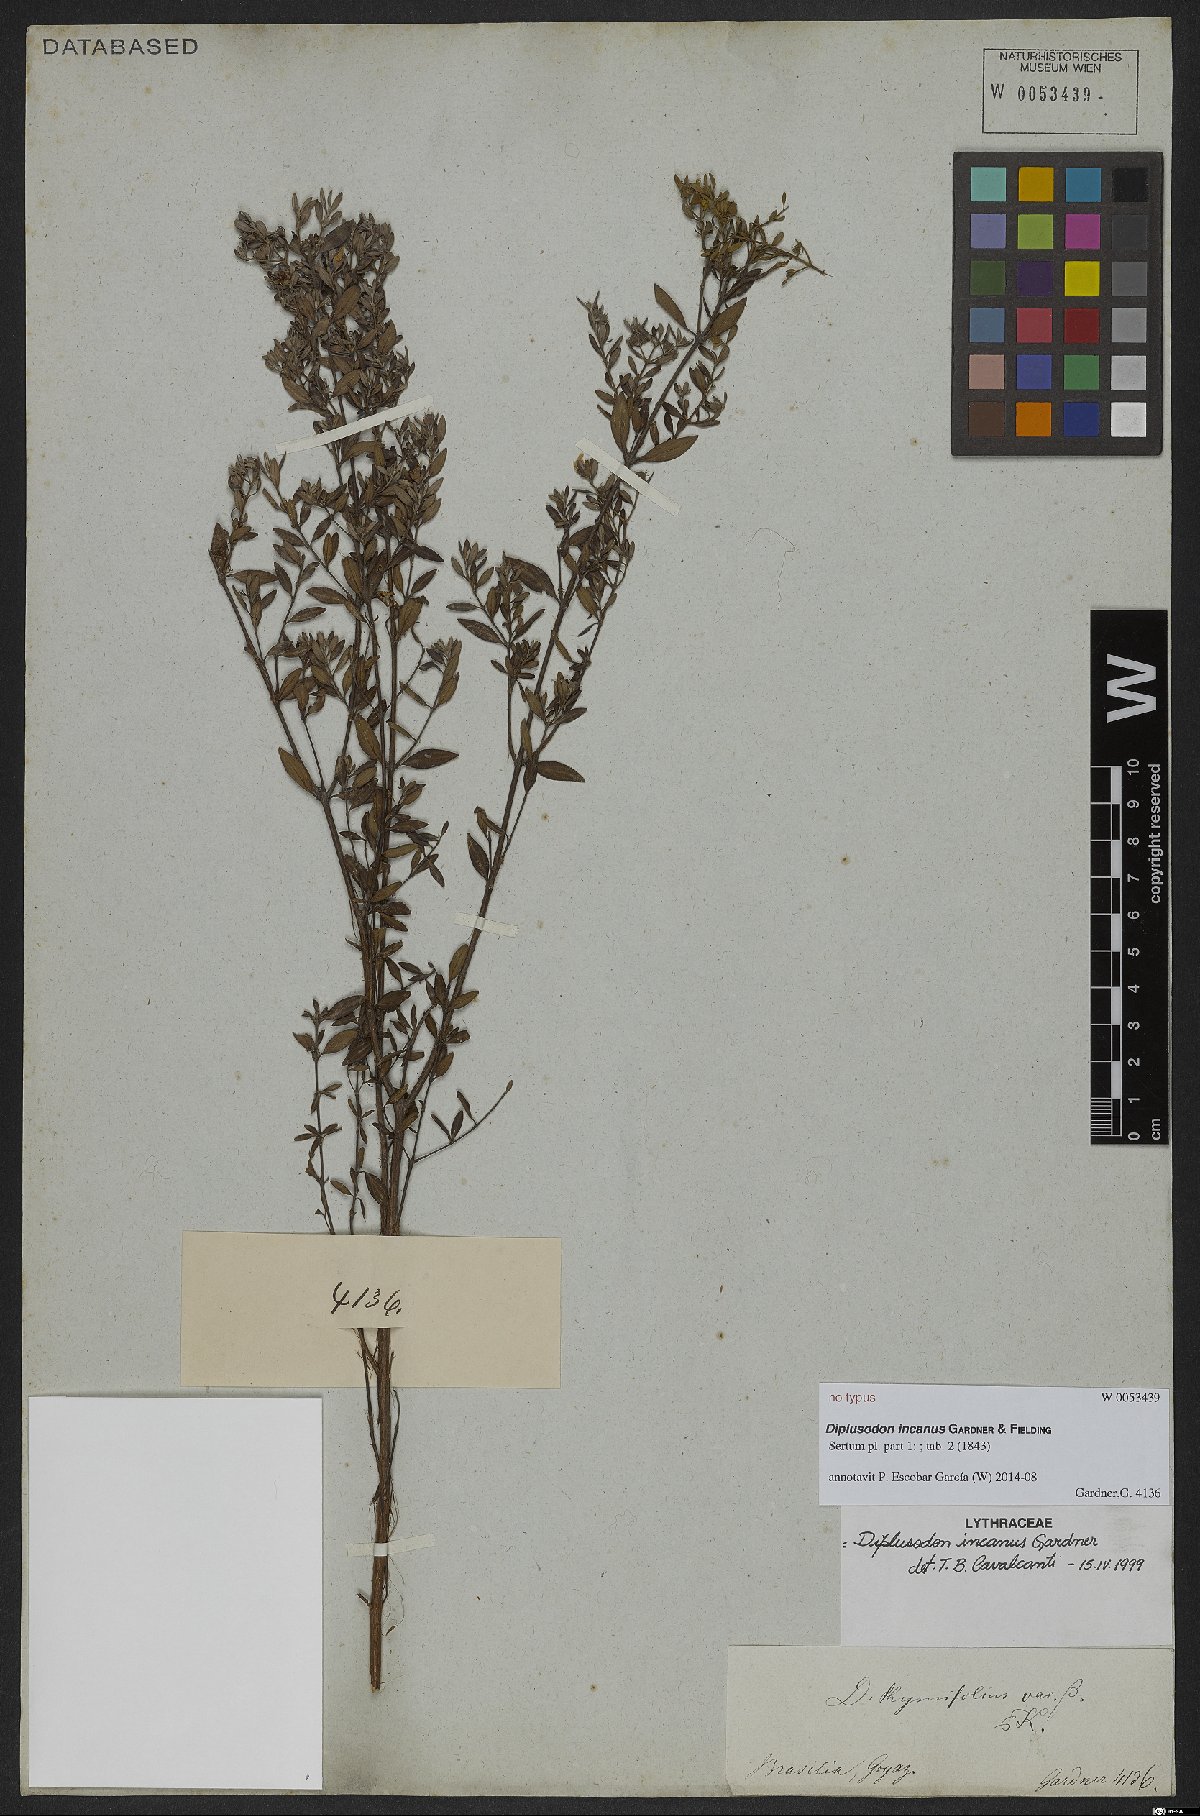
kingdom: Plantae
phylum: Tracheophyta
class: Magnoliopsida
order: Myrtales
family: Lythraceae
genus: Diplusodon
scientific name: Diplusodon incanus
